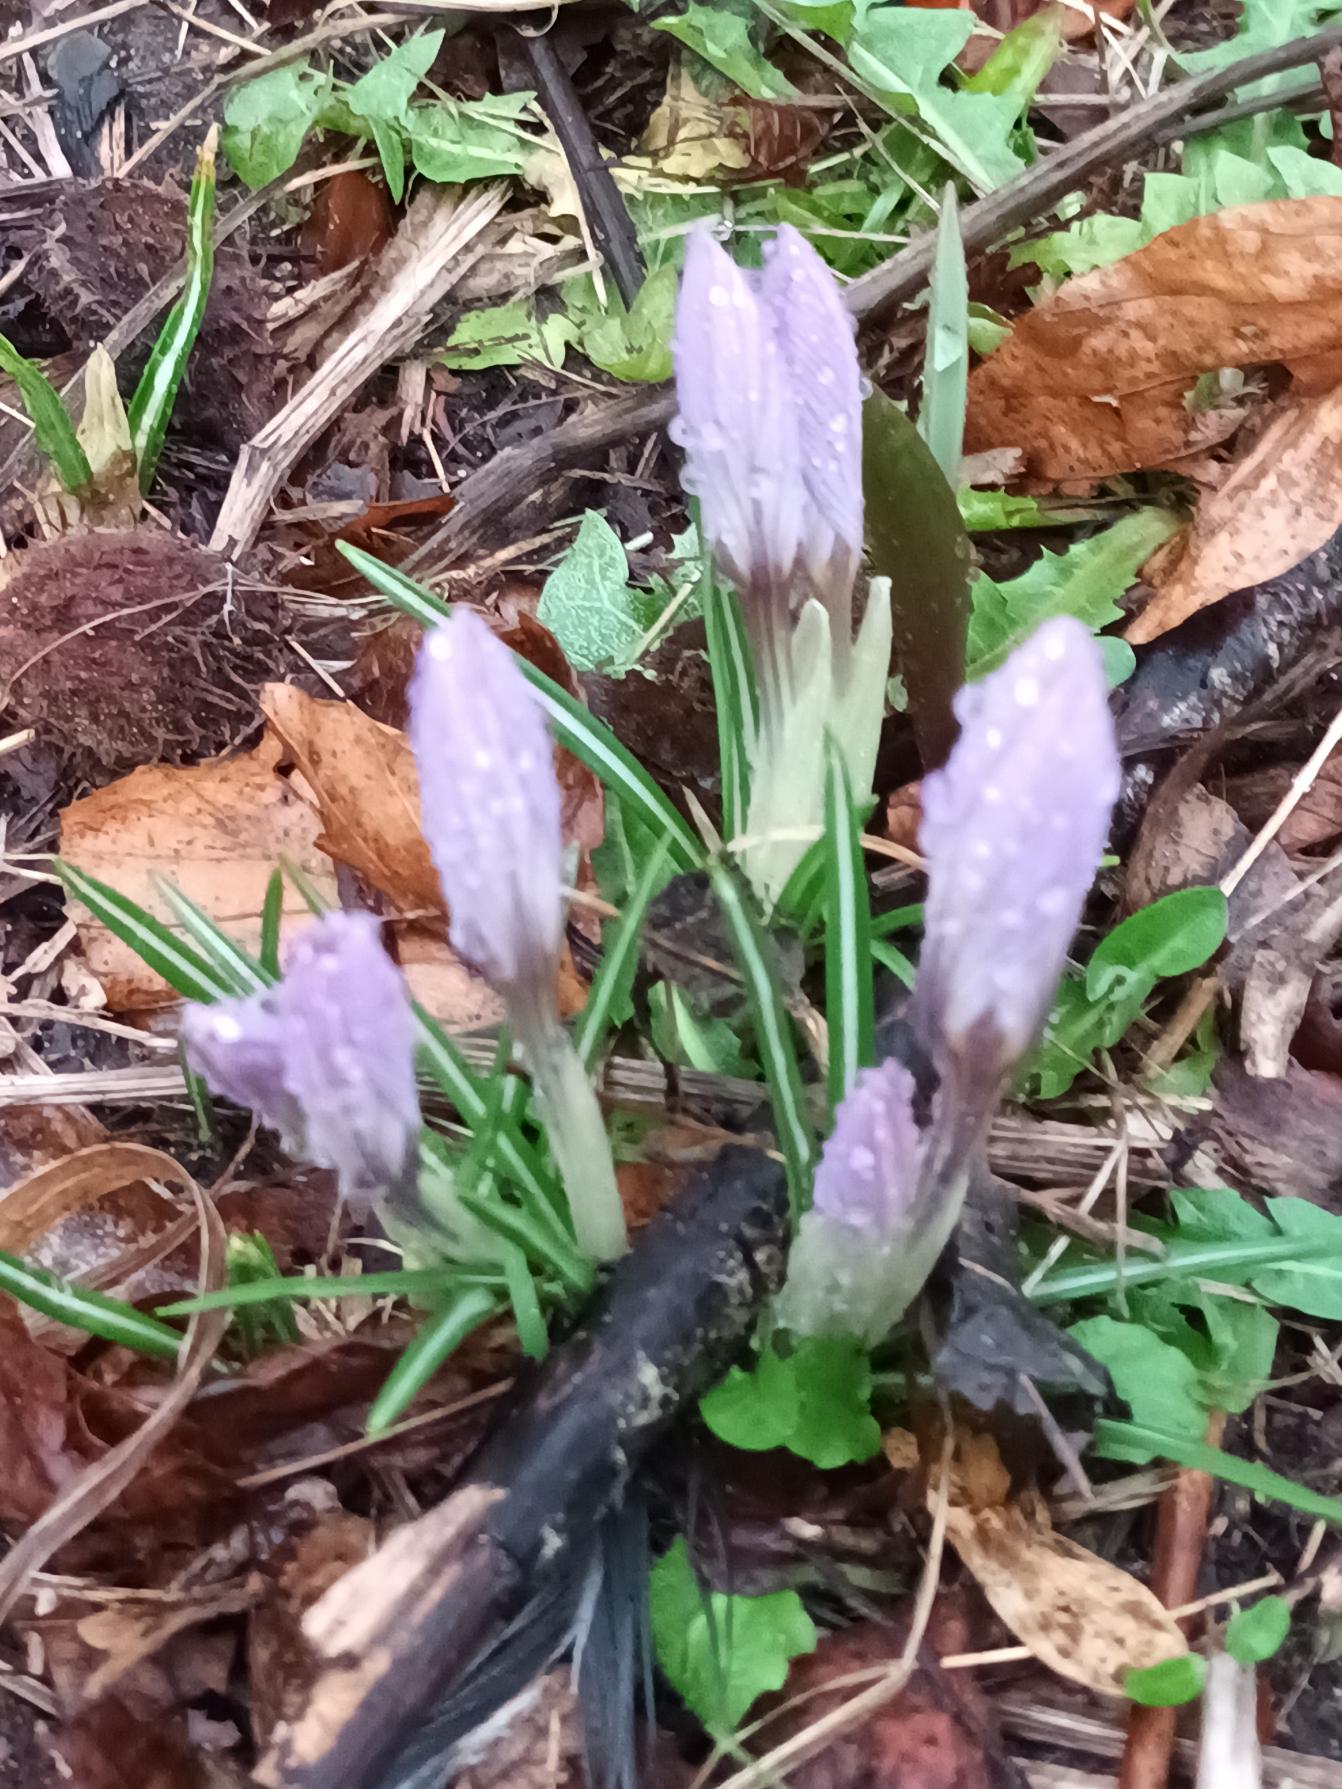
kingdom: Plantae
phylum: Tracheophyta
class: Liliopsida
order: Asparagales
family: Iridaceae
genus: Crocus
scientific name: Crocus tommasinianus
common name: Sne-krokus
